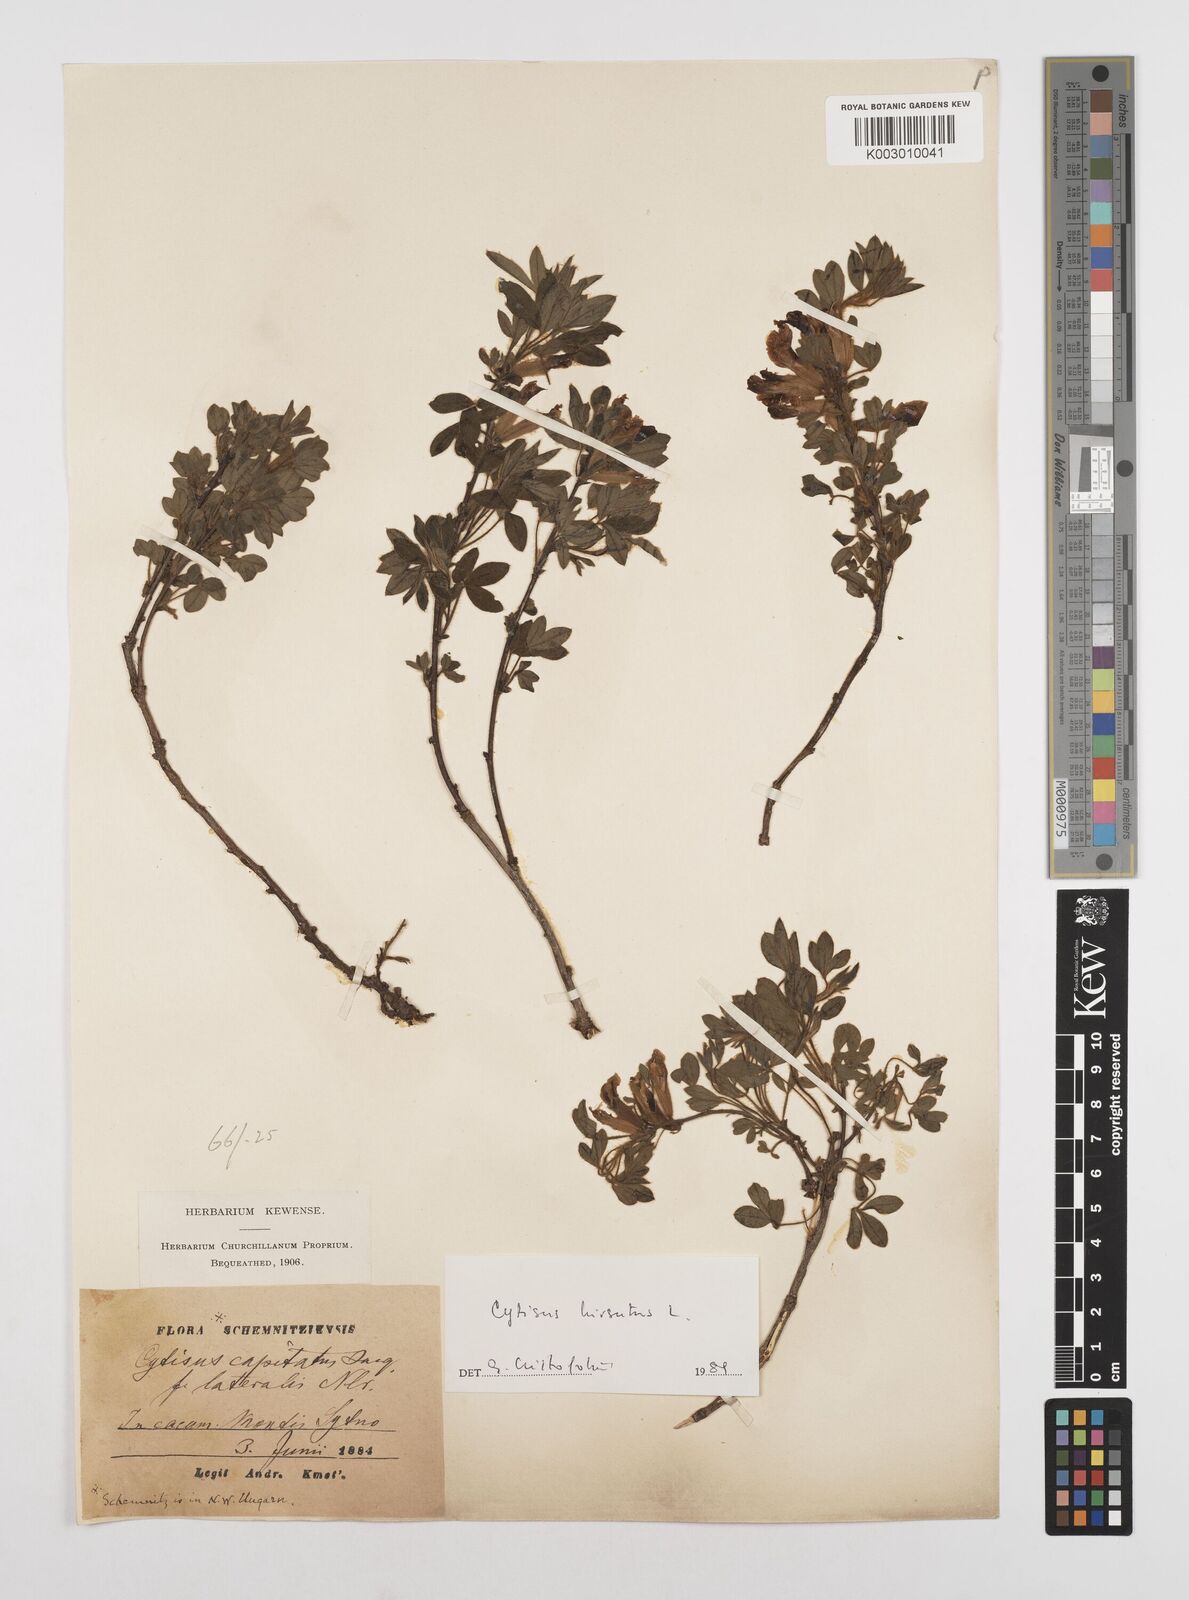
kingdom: Plantae
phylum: Tracheophyta
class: Magnoliopsida
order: Fabales
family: Fabaceae
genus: Chamaecytisus
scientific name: Chamaecytisus hirsutus
